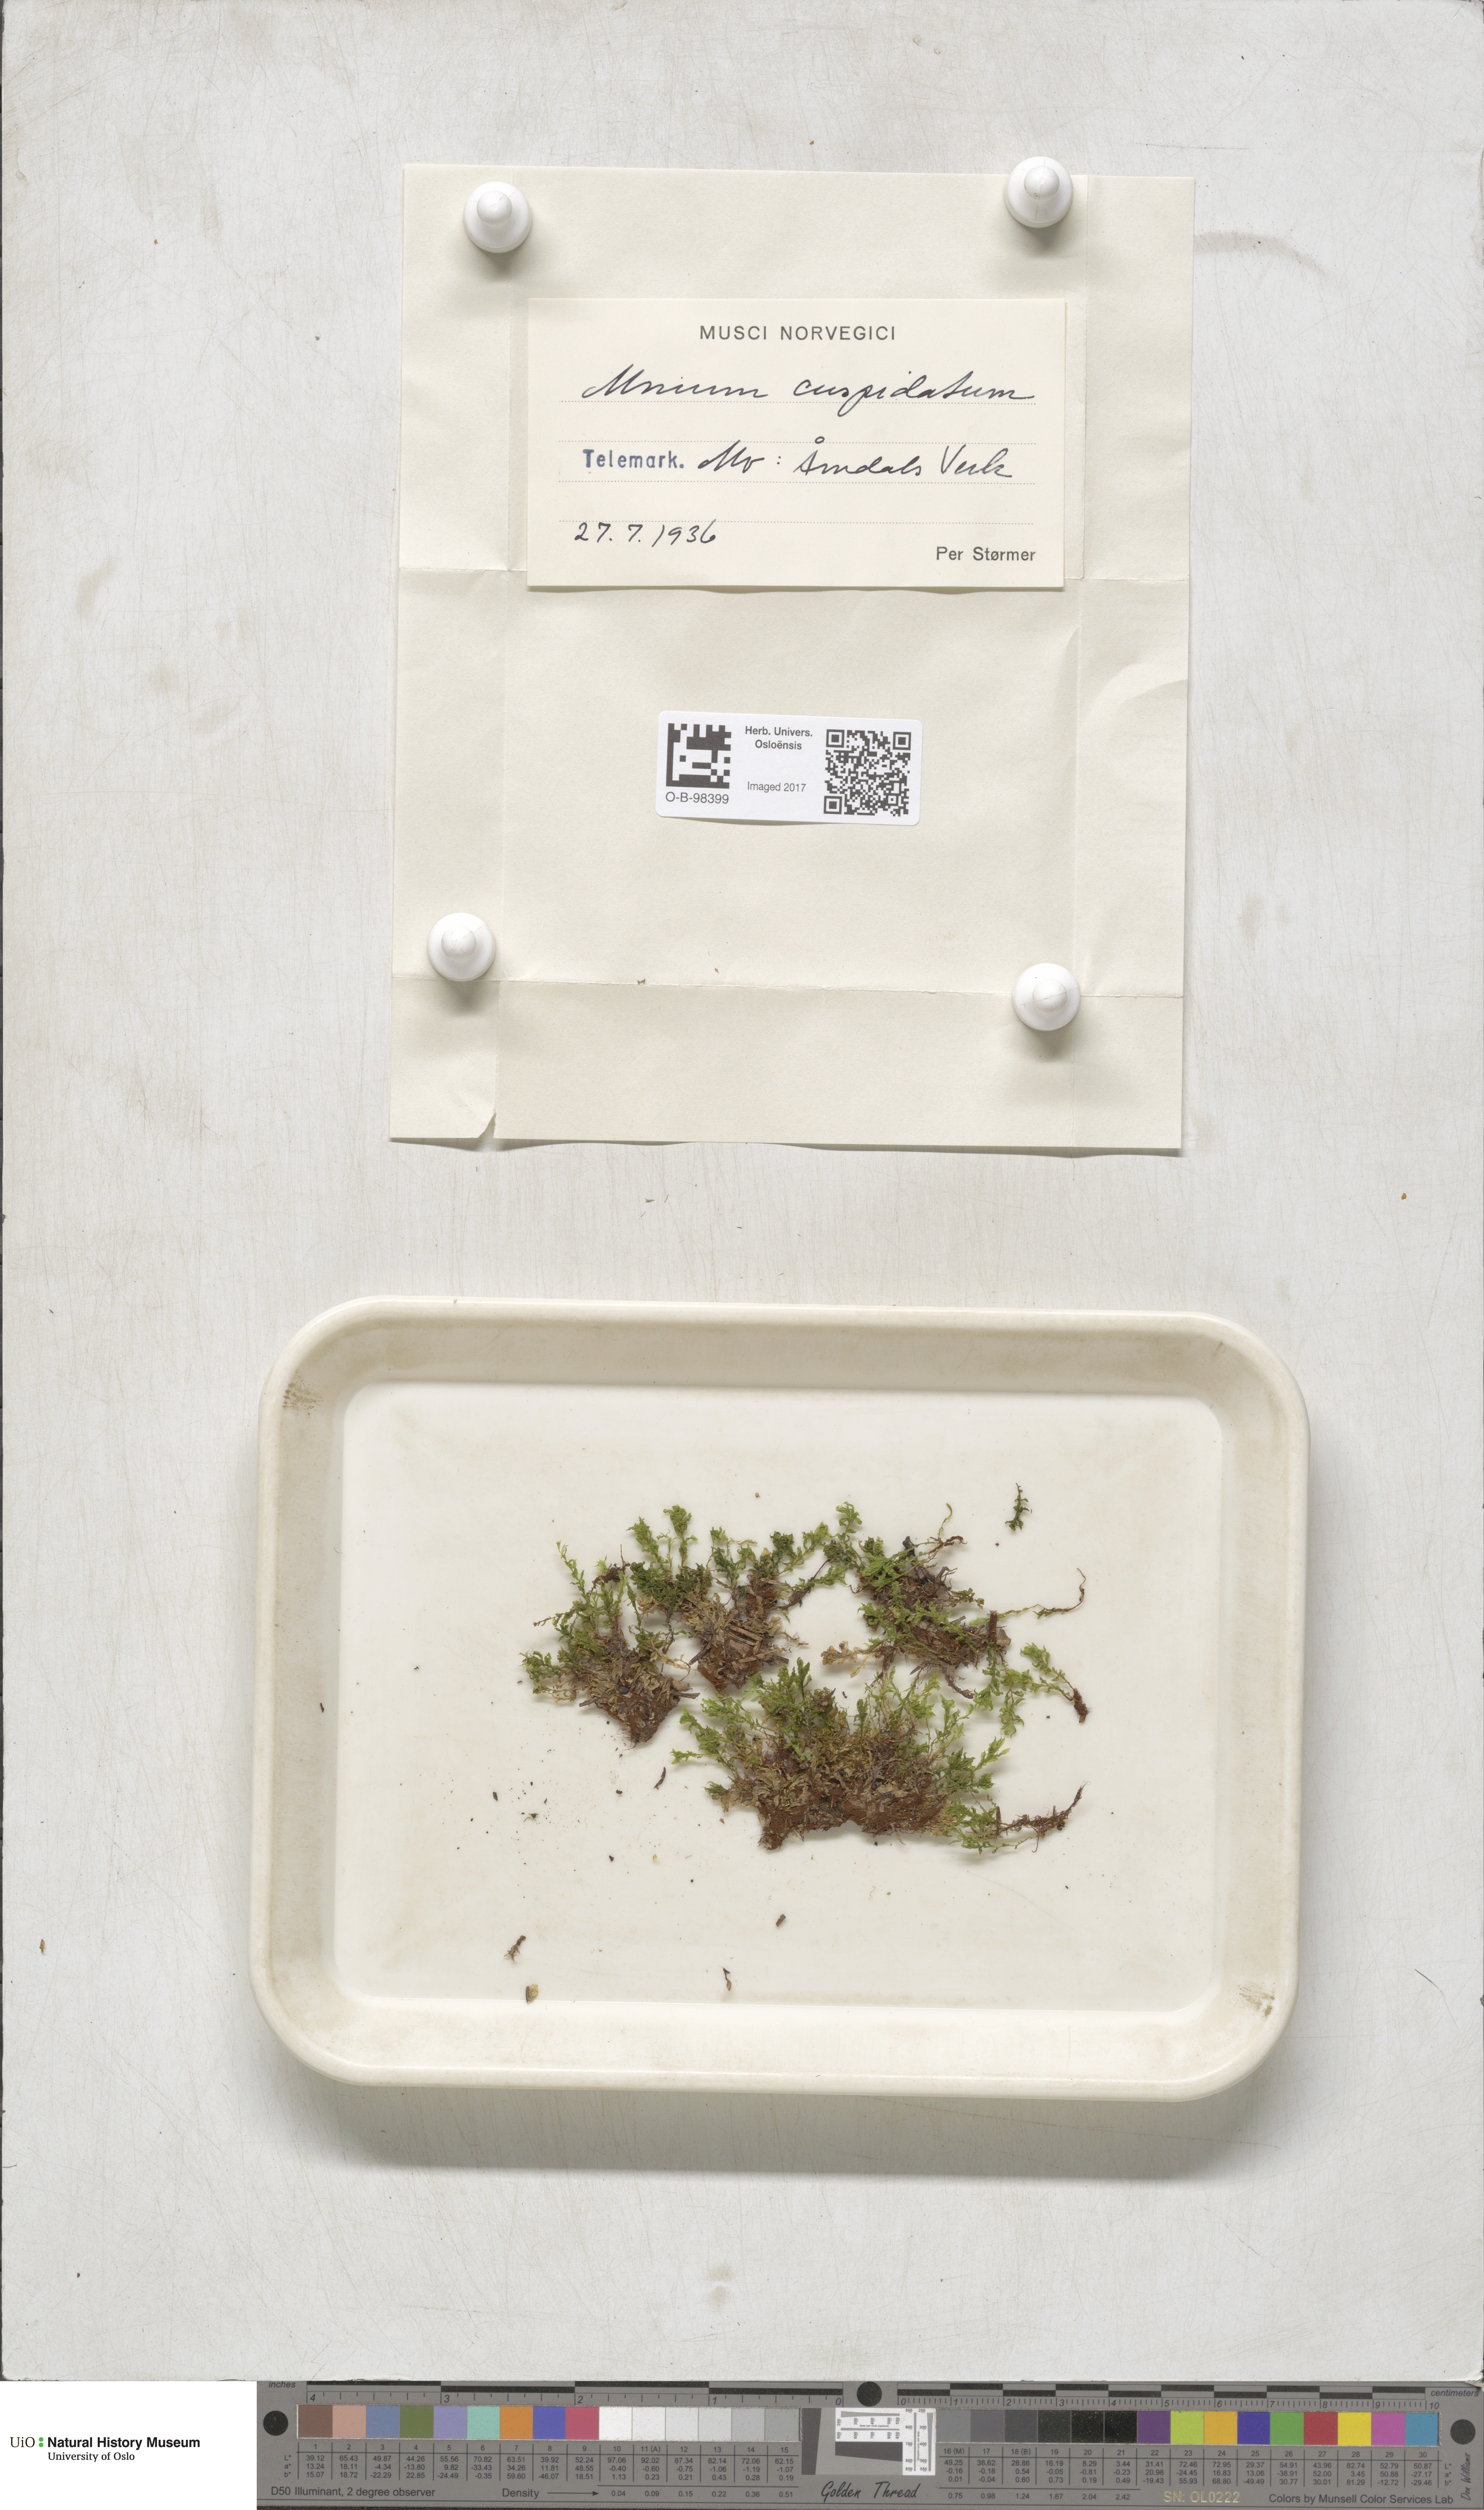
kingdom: Plantae
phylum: Bryophyta
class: Bryopsida
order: Bryales
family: Mniaceae
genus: Plagiomnium
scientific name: Plagiomnium cuspidatum
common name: Woodsy leafy moss
